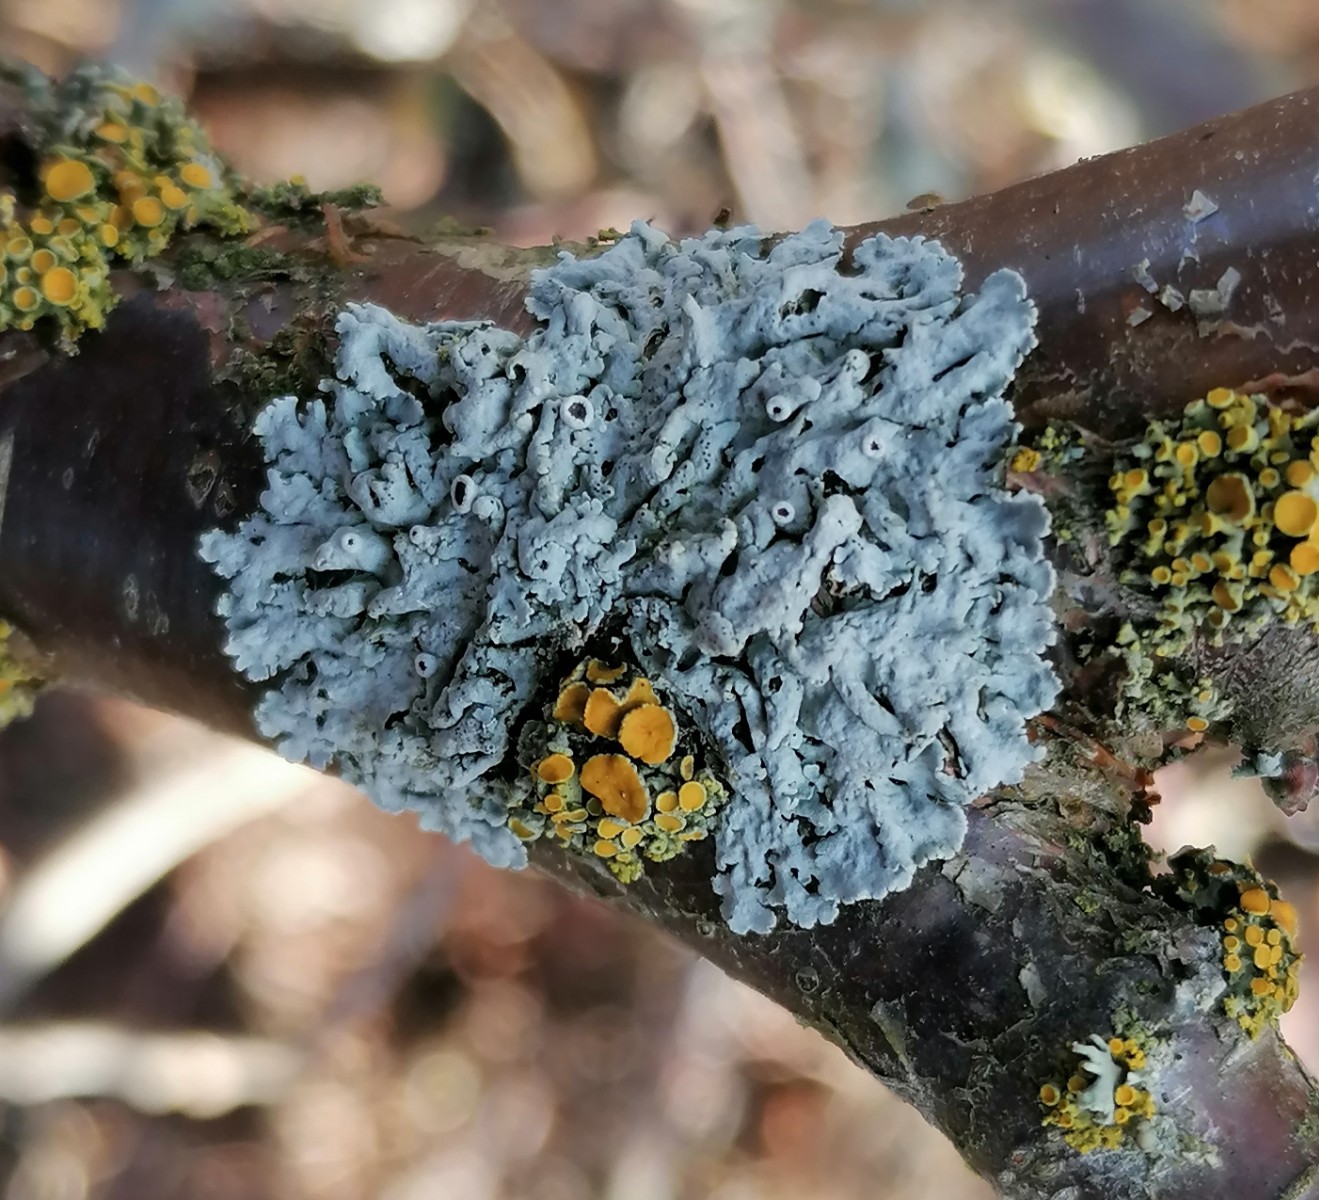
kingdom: Fungi
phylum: Ascomycota
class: Lecanoromycetes
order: Caliciales
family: Physciaceae
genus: Physcia
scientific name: Physcia aipolia
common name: hvidprikket rosetlav
